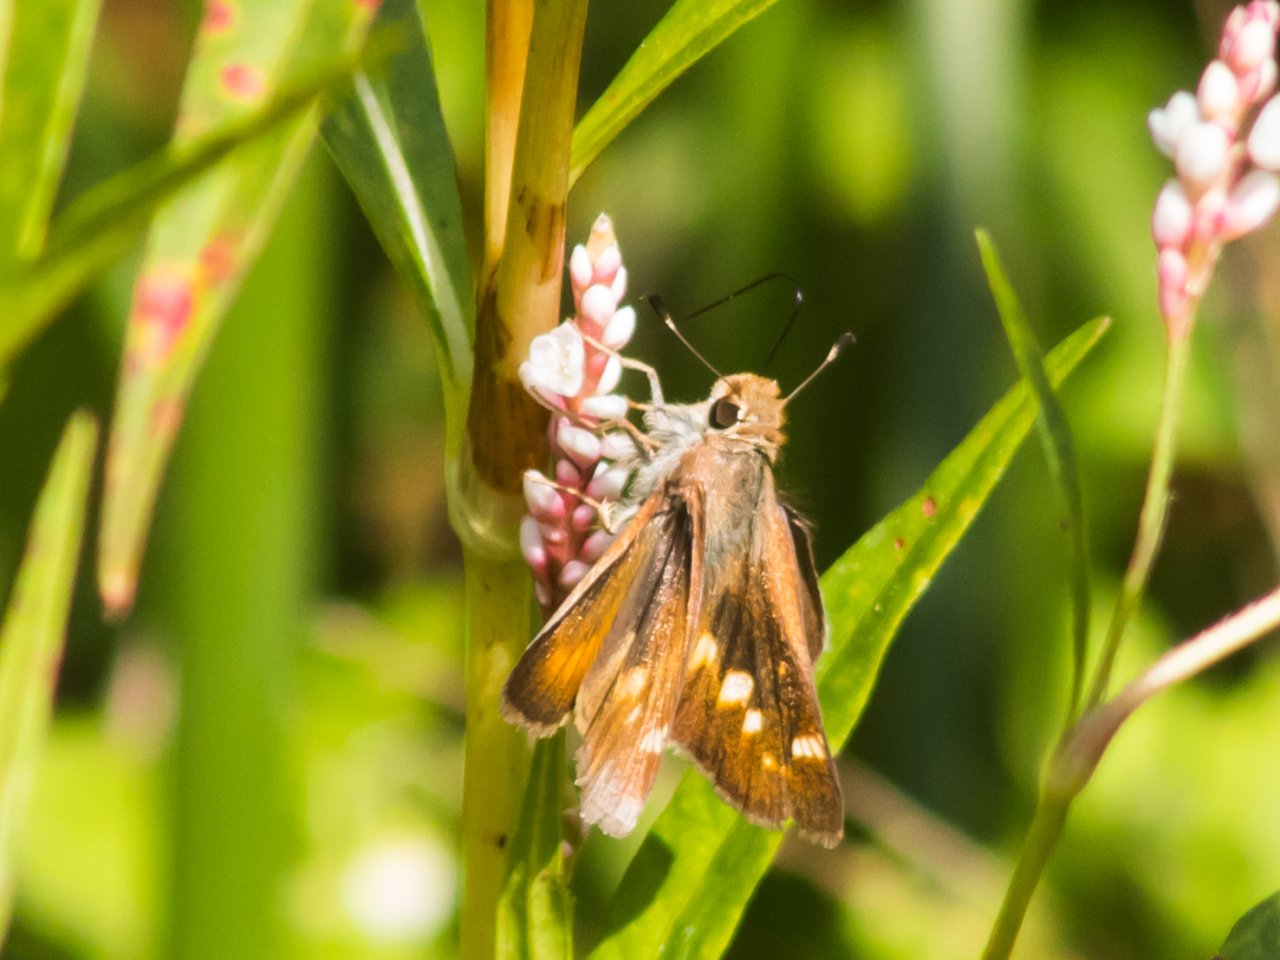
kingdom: Animalia
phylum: Arthropoda
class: Insecta
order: Lepidoptera
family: Hesperiidae
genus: Lon
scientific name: Lon melane
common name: Umber Skipper
